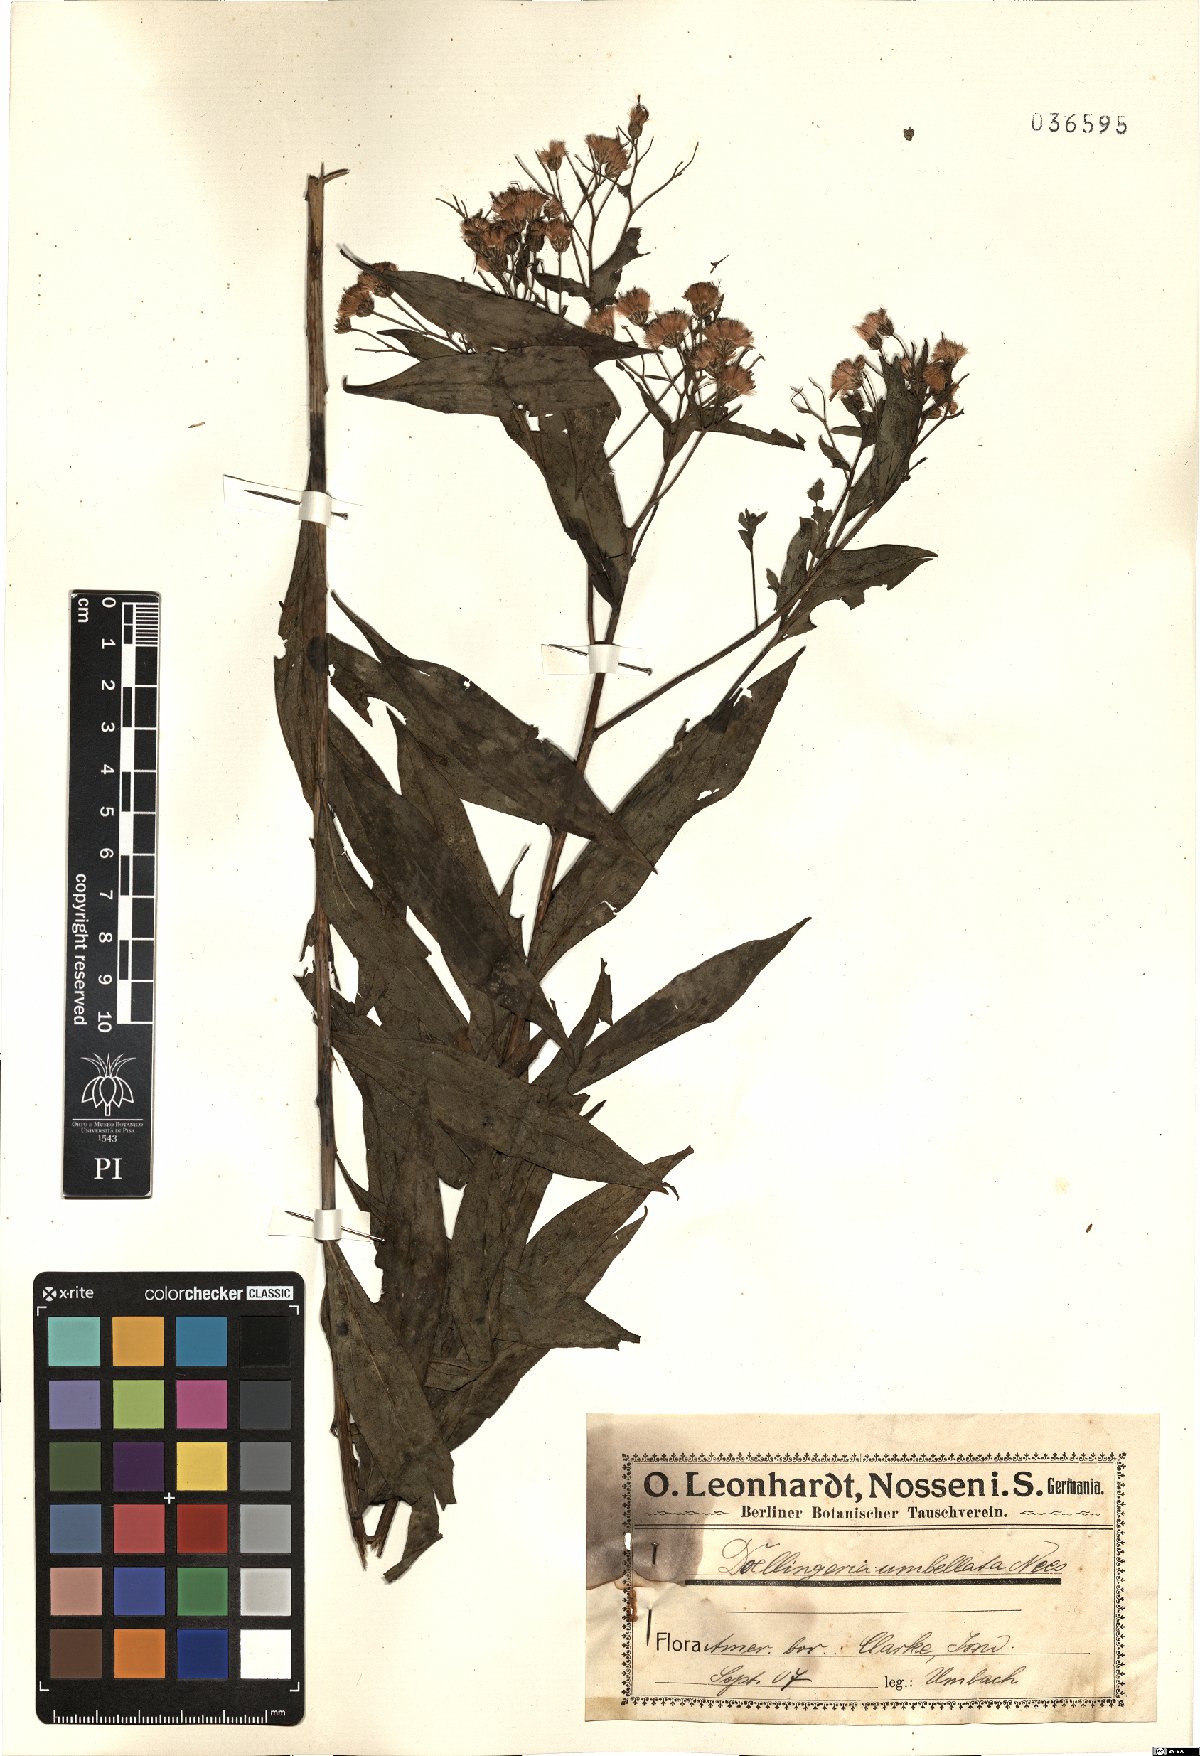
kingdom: Plantae
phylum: Tracheophyta
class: Magnoliopsida
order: Asterales
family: Asteraceae
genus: Doellingeria
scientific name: Doellingeria umbellata
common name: Flat-top white aster
